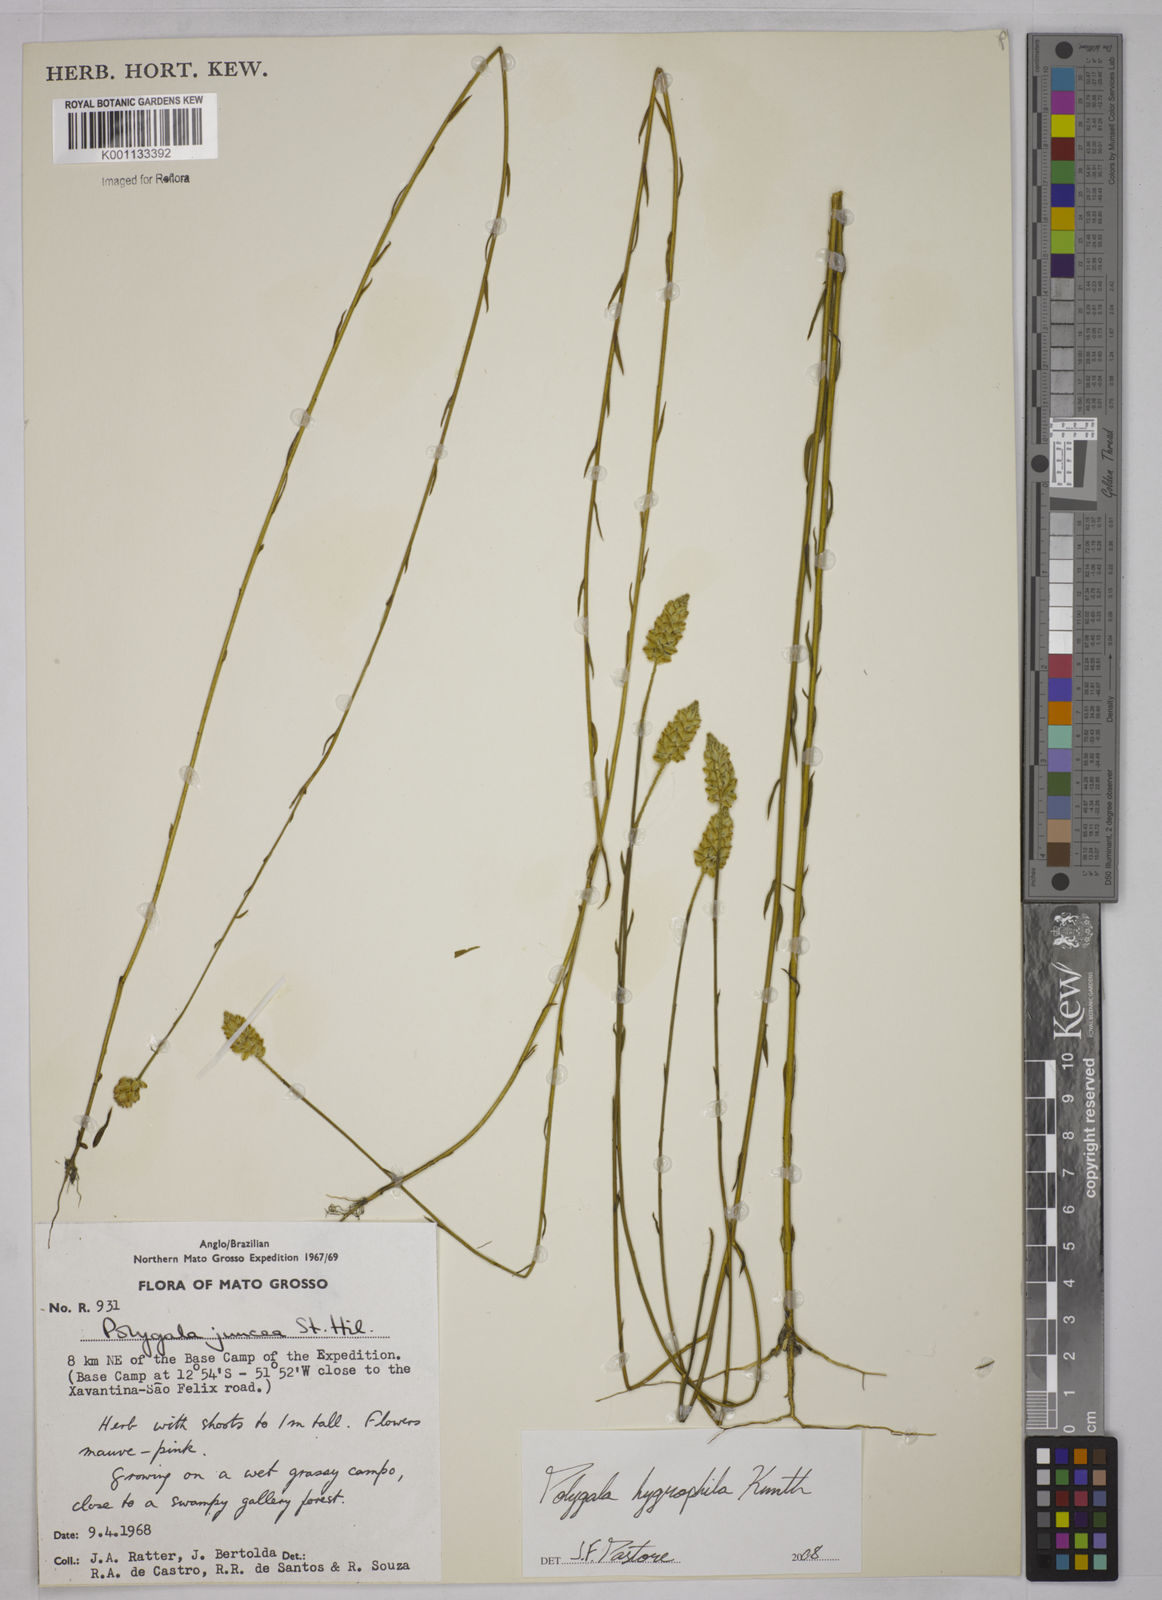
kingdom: Plantae
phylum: Tracheophyta
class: Magnoliopsida
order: Fabales
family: Polygalaceae
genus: Polygala
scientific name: Polygala hygrophila
